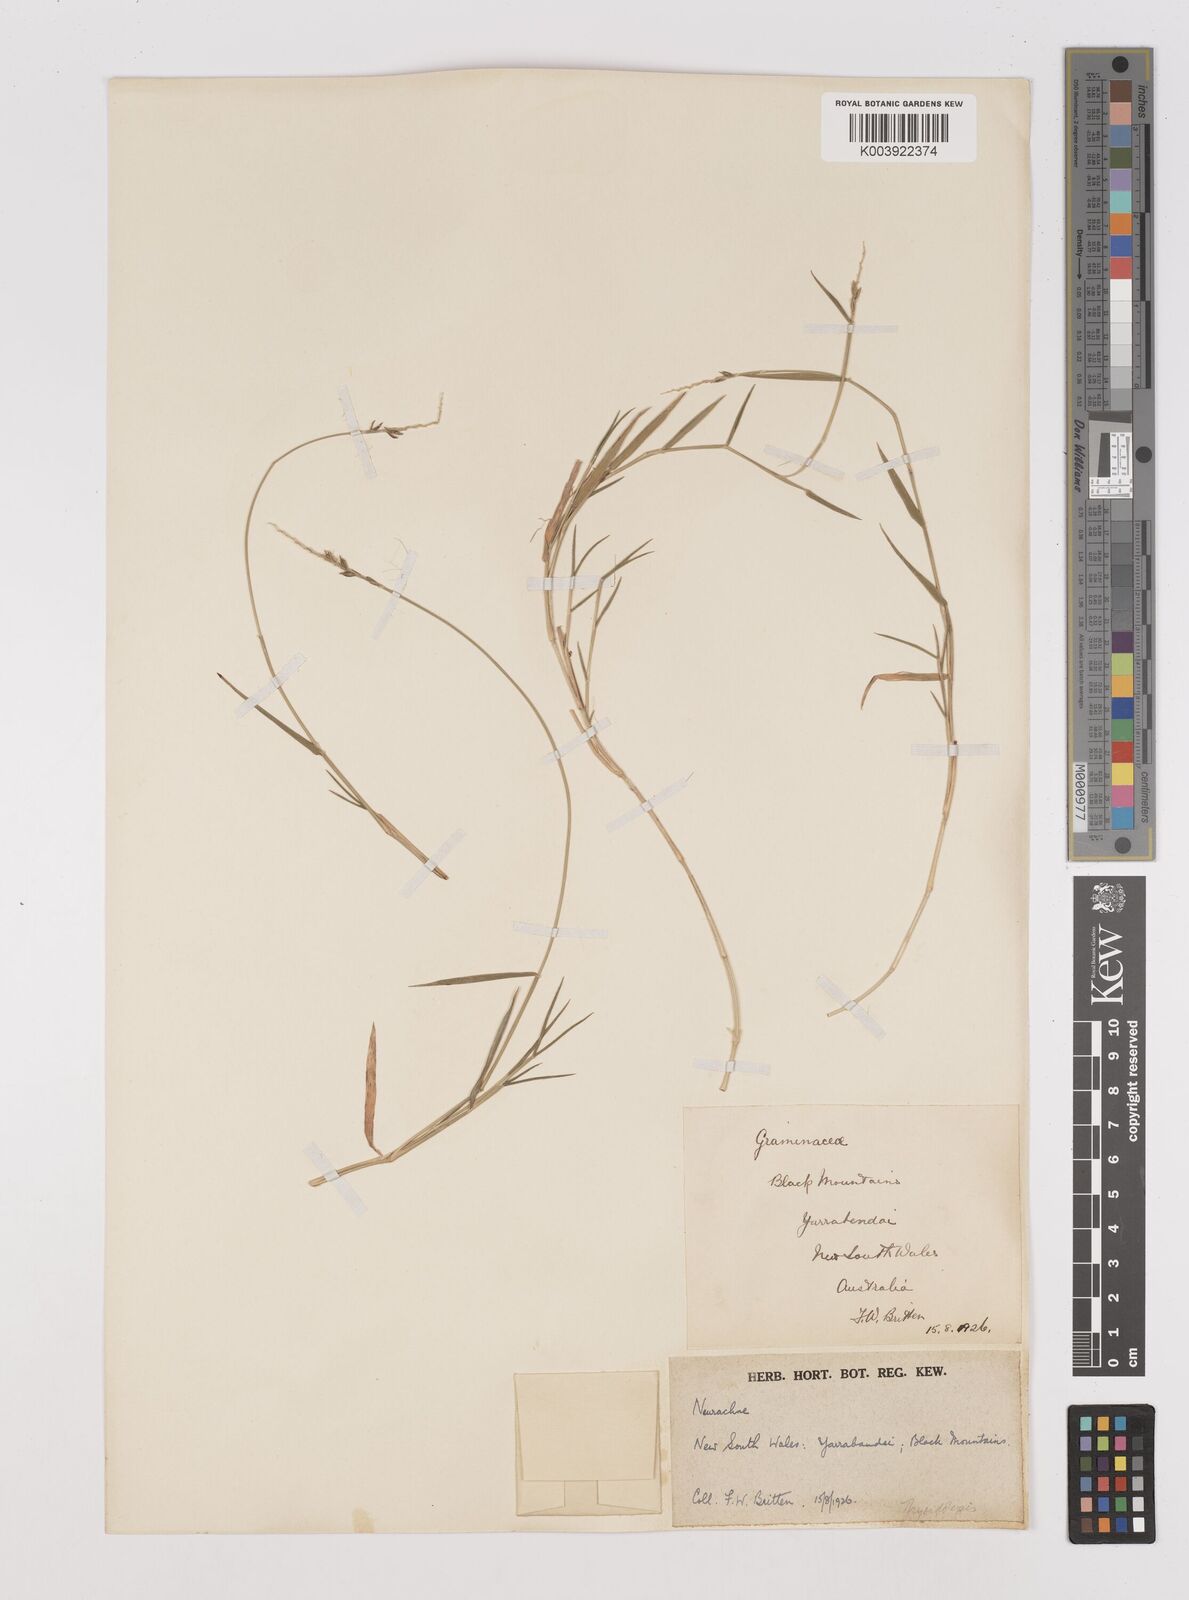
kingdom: Plantae
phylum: Tracheophyta
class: Liliopsida
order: Poales
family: Poaceae
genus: Thyridolepis
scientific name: Thyridolepis mitchelliana
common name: Rock tassel grass
